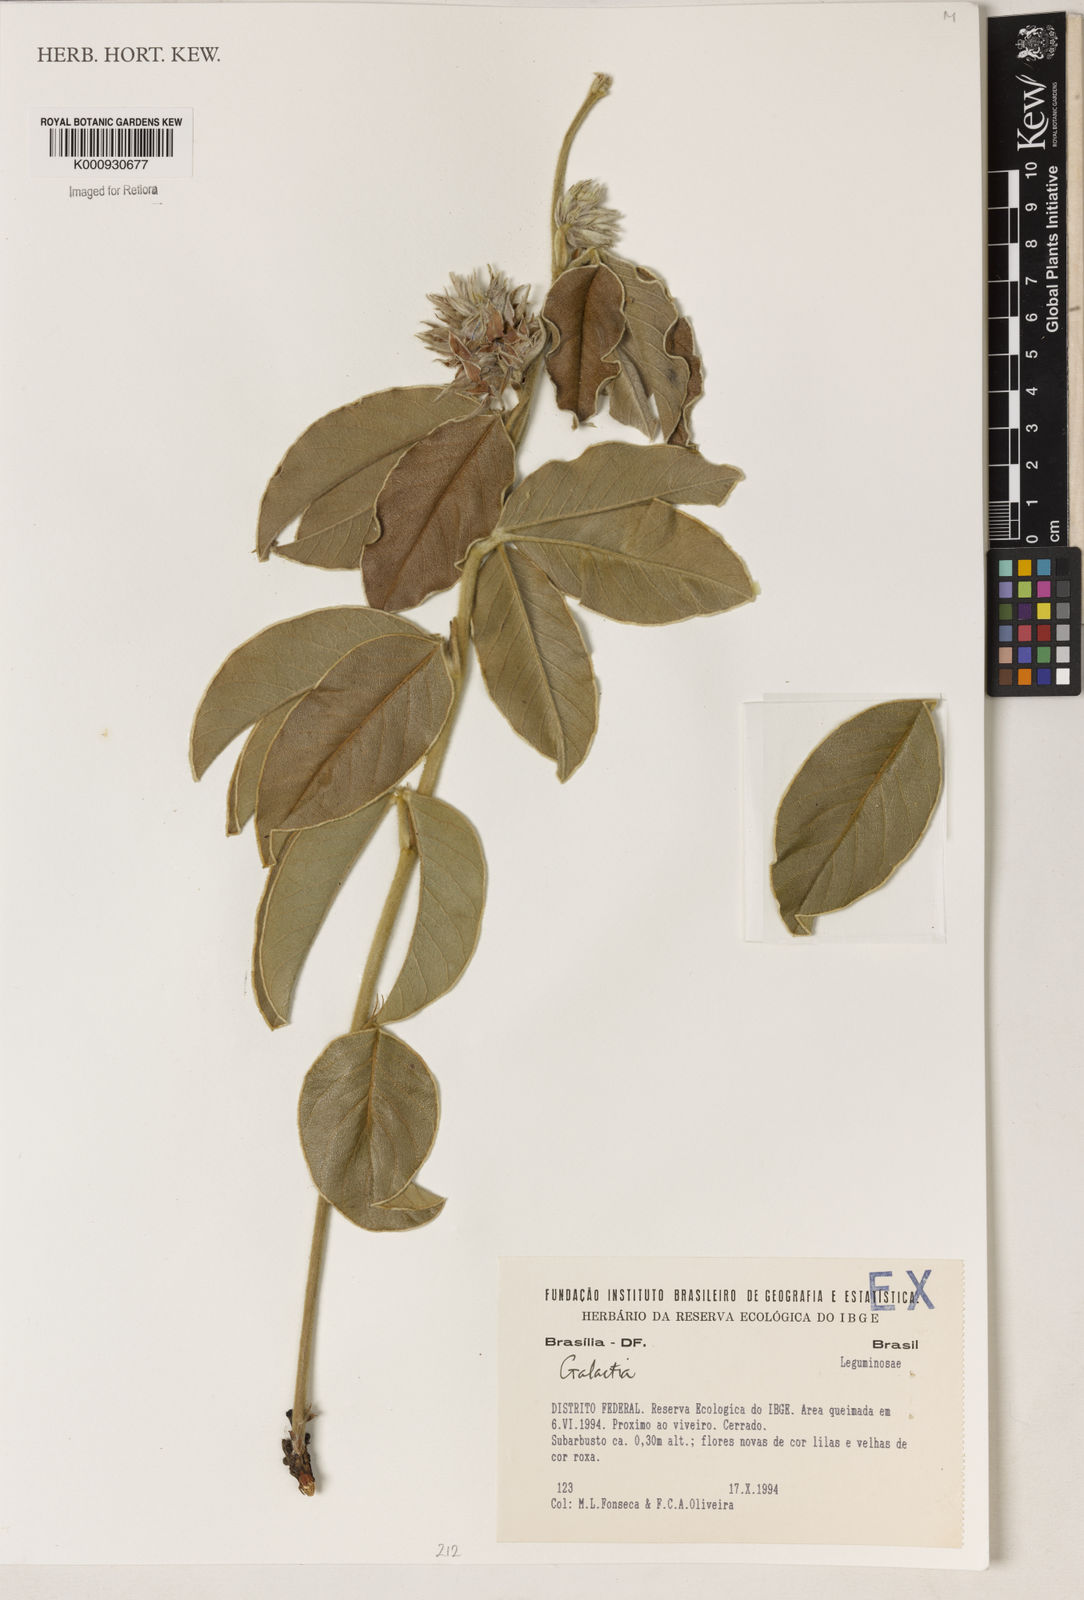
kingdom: Plantae
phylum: Tracheophyta
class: Magnoliopsida
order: Fabales
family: Fabaceae
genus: Galactia
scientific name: Galactia
